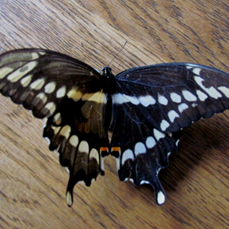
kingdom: Animalia
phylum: Arthropoda
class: Insecta
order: Lepidoptera
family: Papilionidae
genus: Papilio
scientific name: Papilio cresphontes
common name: Eastern Giant Swallowtail
